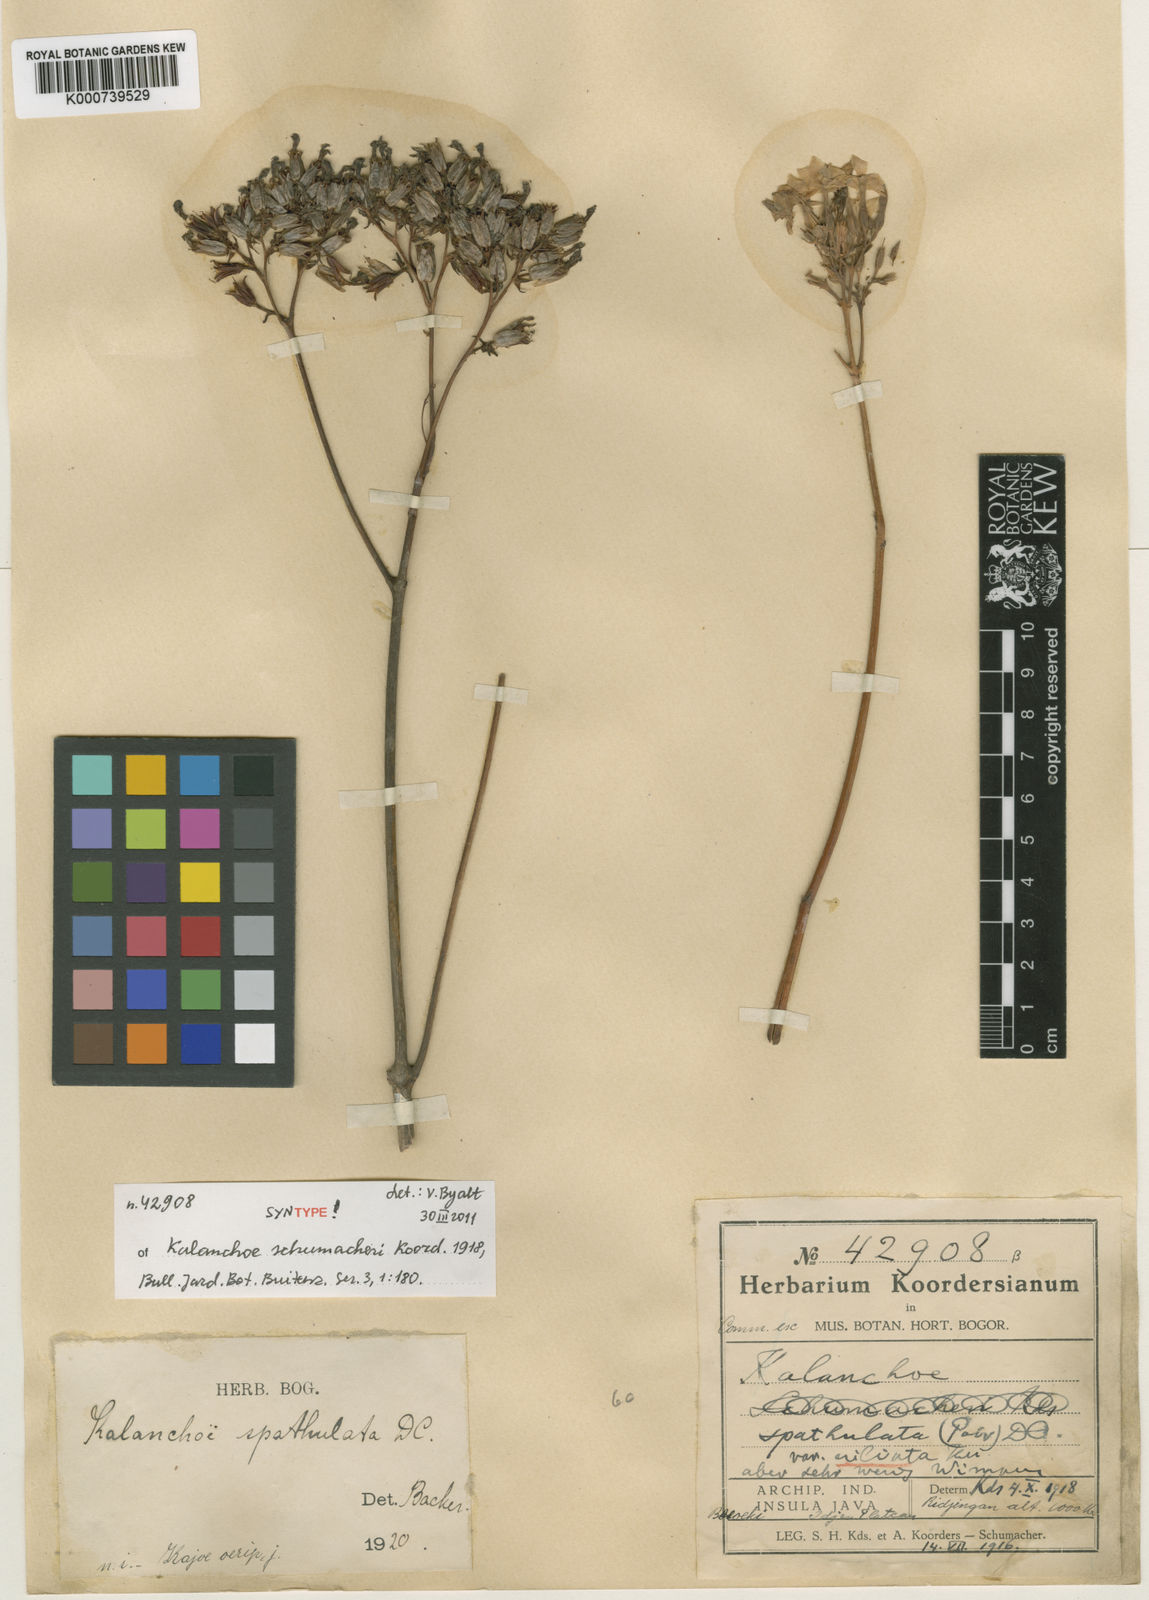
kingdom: Plantae
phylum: Tracheophyta
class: Magnoliopsida
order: Saxifragales
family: Crassulaceae
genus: Kalanchoe
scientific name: Kalanchoe integra
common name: Neverdie
